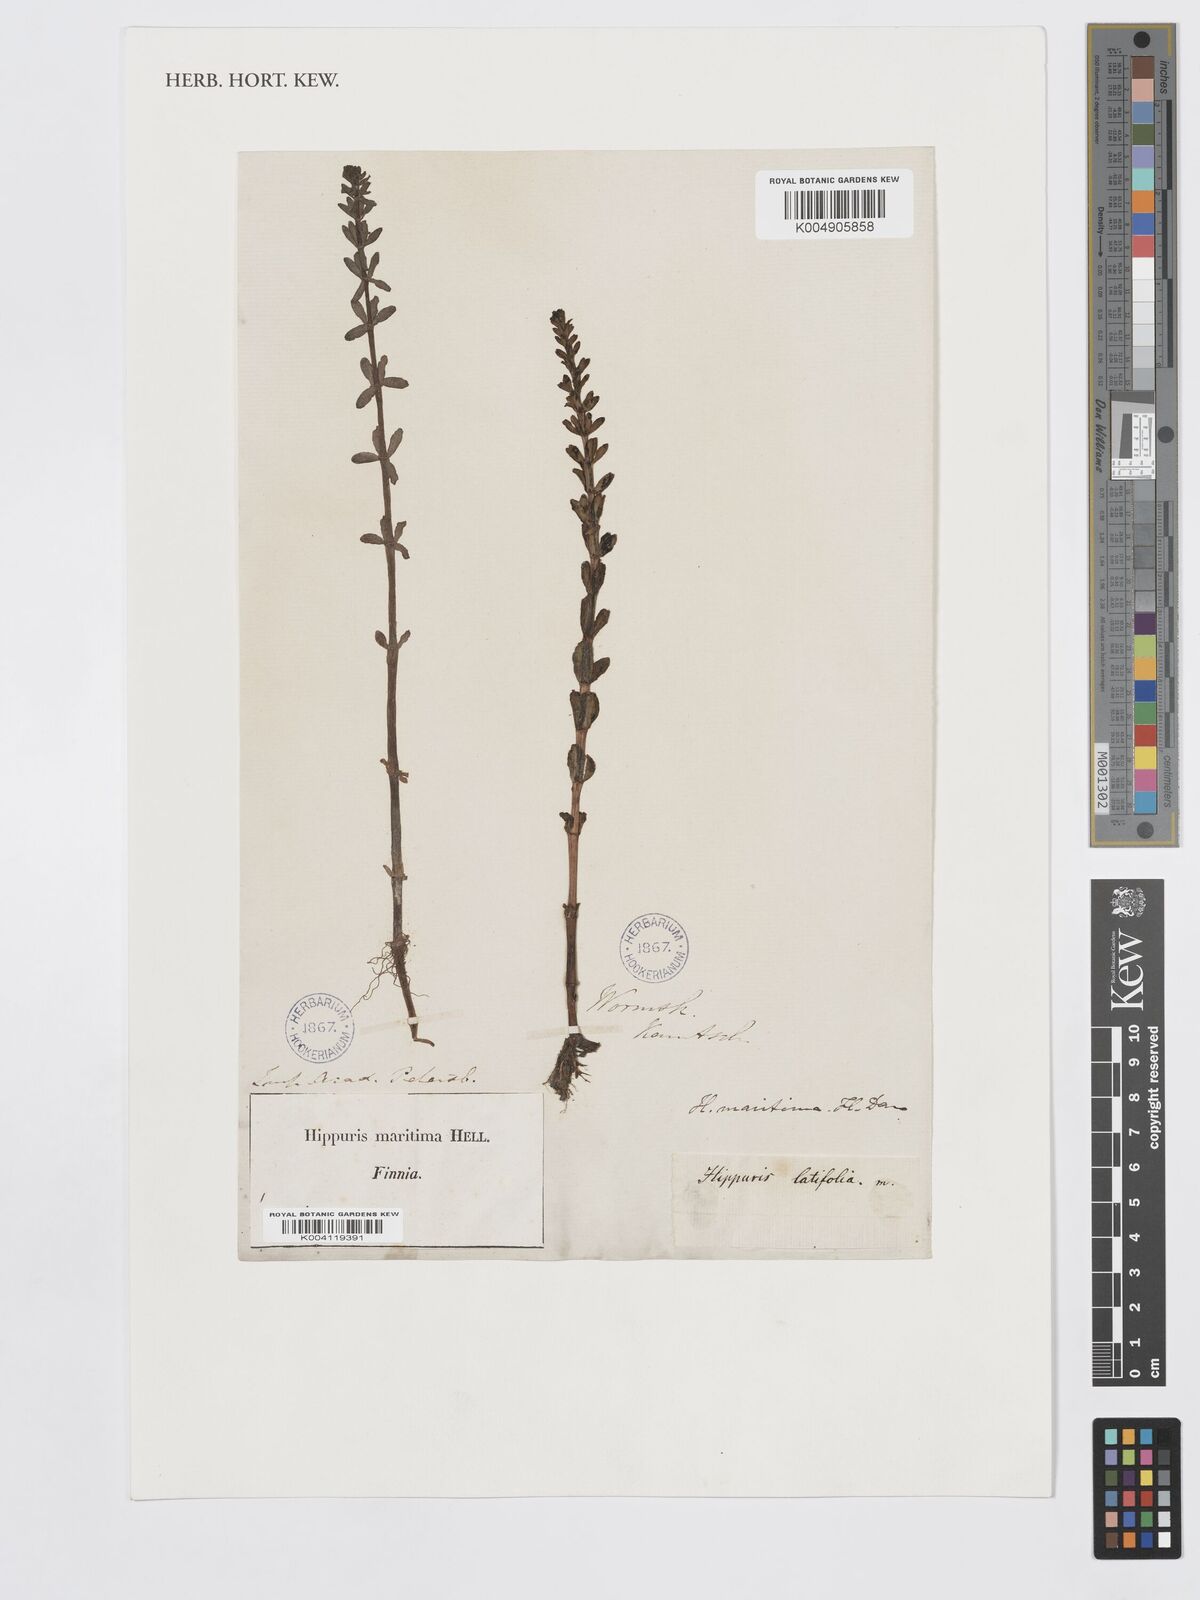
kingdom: Plantae
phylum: Tracheophyta
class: Magnoliopsida
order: Lamiales
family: Plantaginaceae
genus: Hippuris
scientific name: Hippuris tetraphylla
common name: Four-leaved mare's-tail
